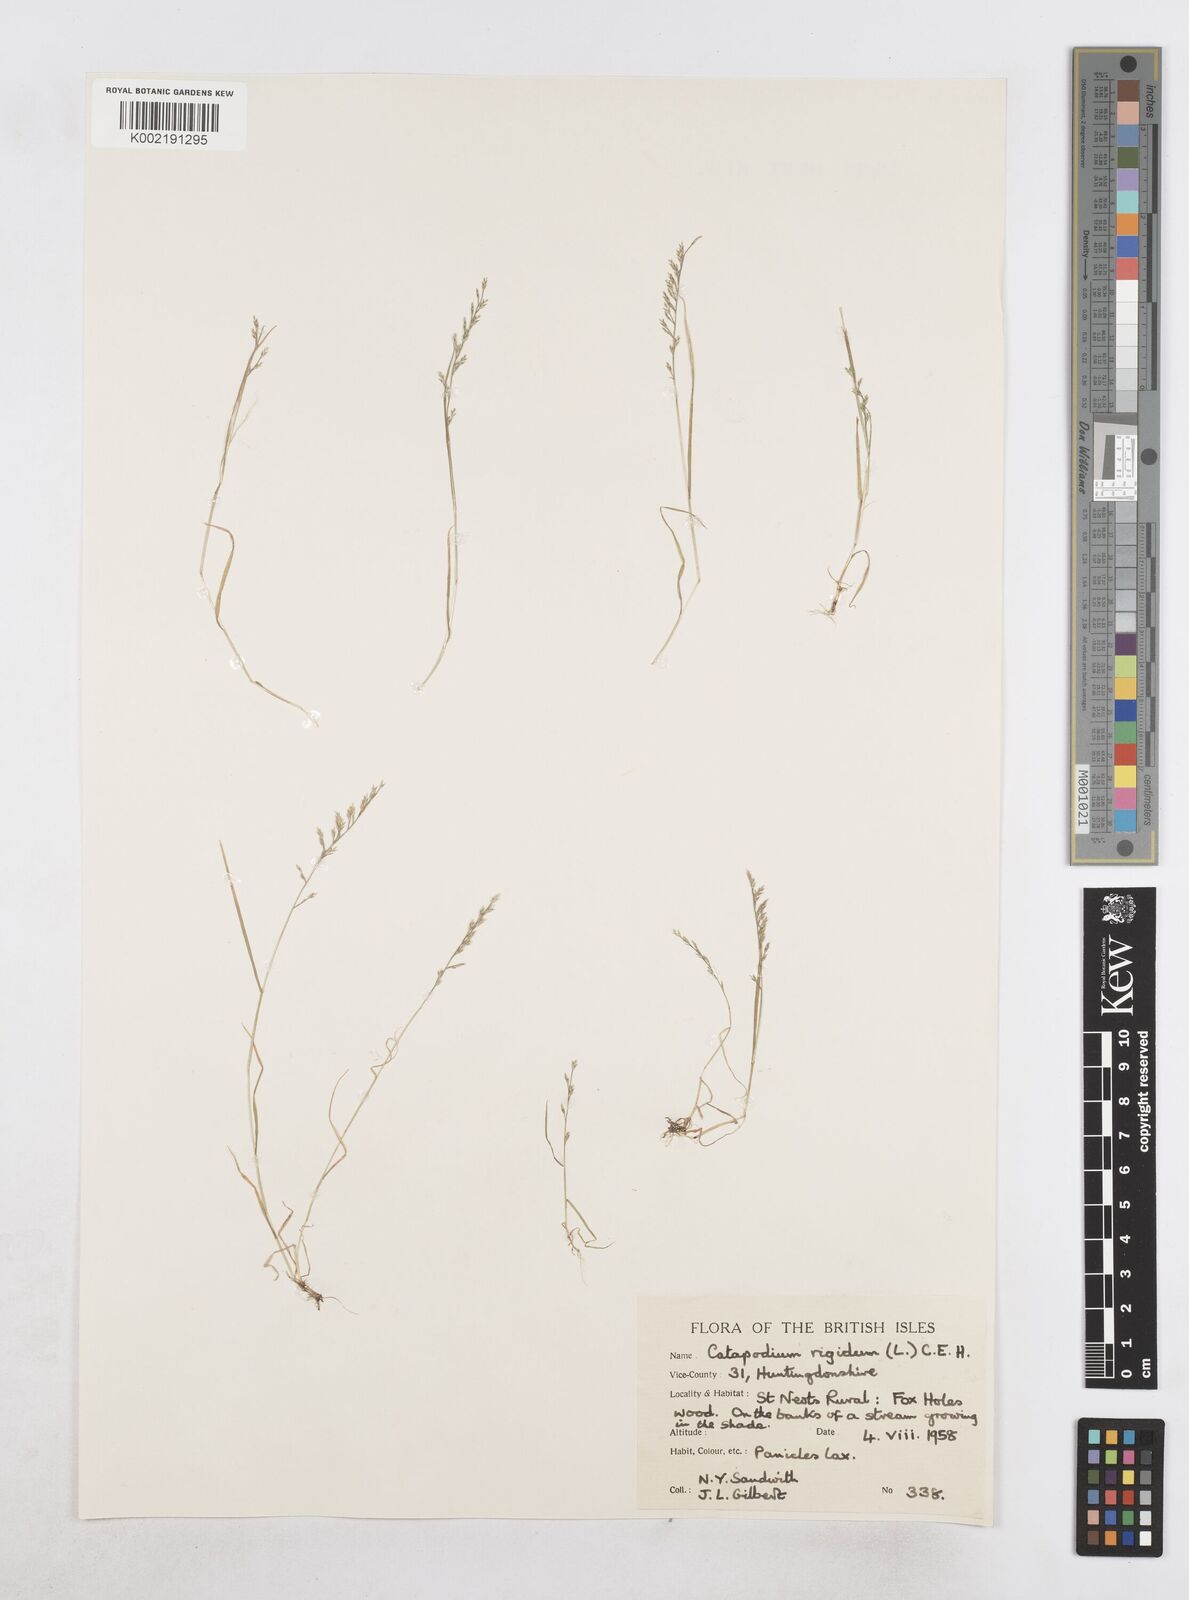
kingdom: Plantae
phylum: Tracheophyta
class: Liliopsida
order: Poales
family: Poaceae
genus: Catapodium
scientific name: Catapodium rigidum
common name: Fern-grass
